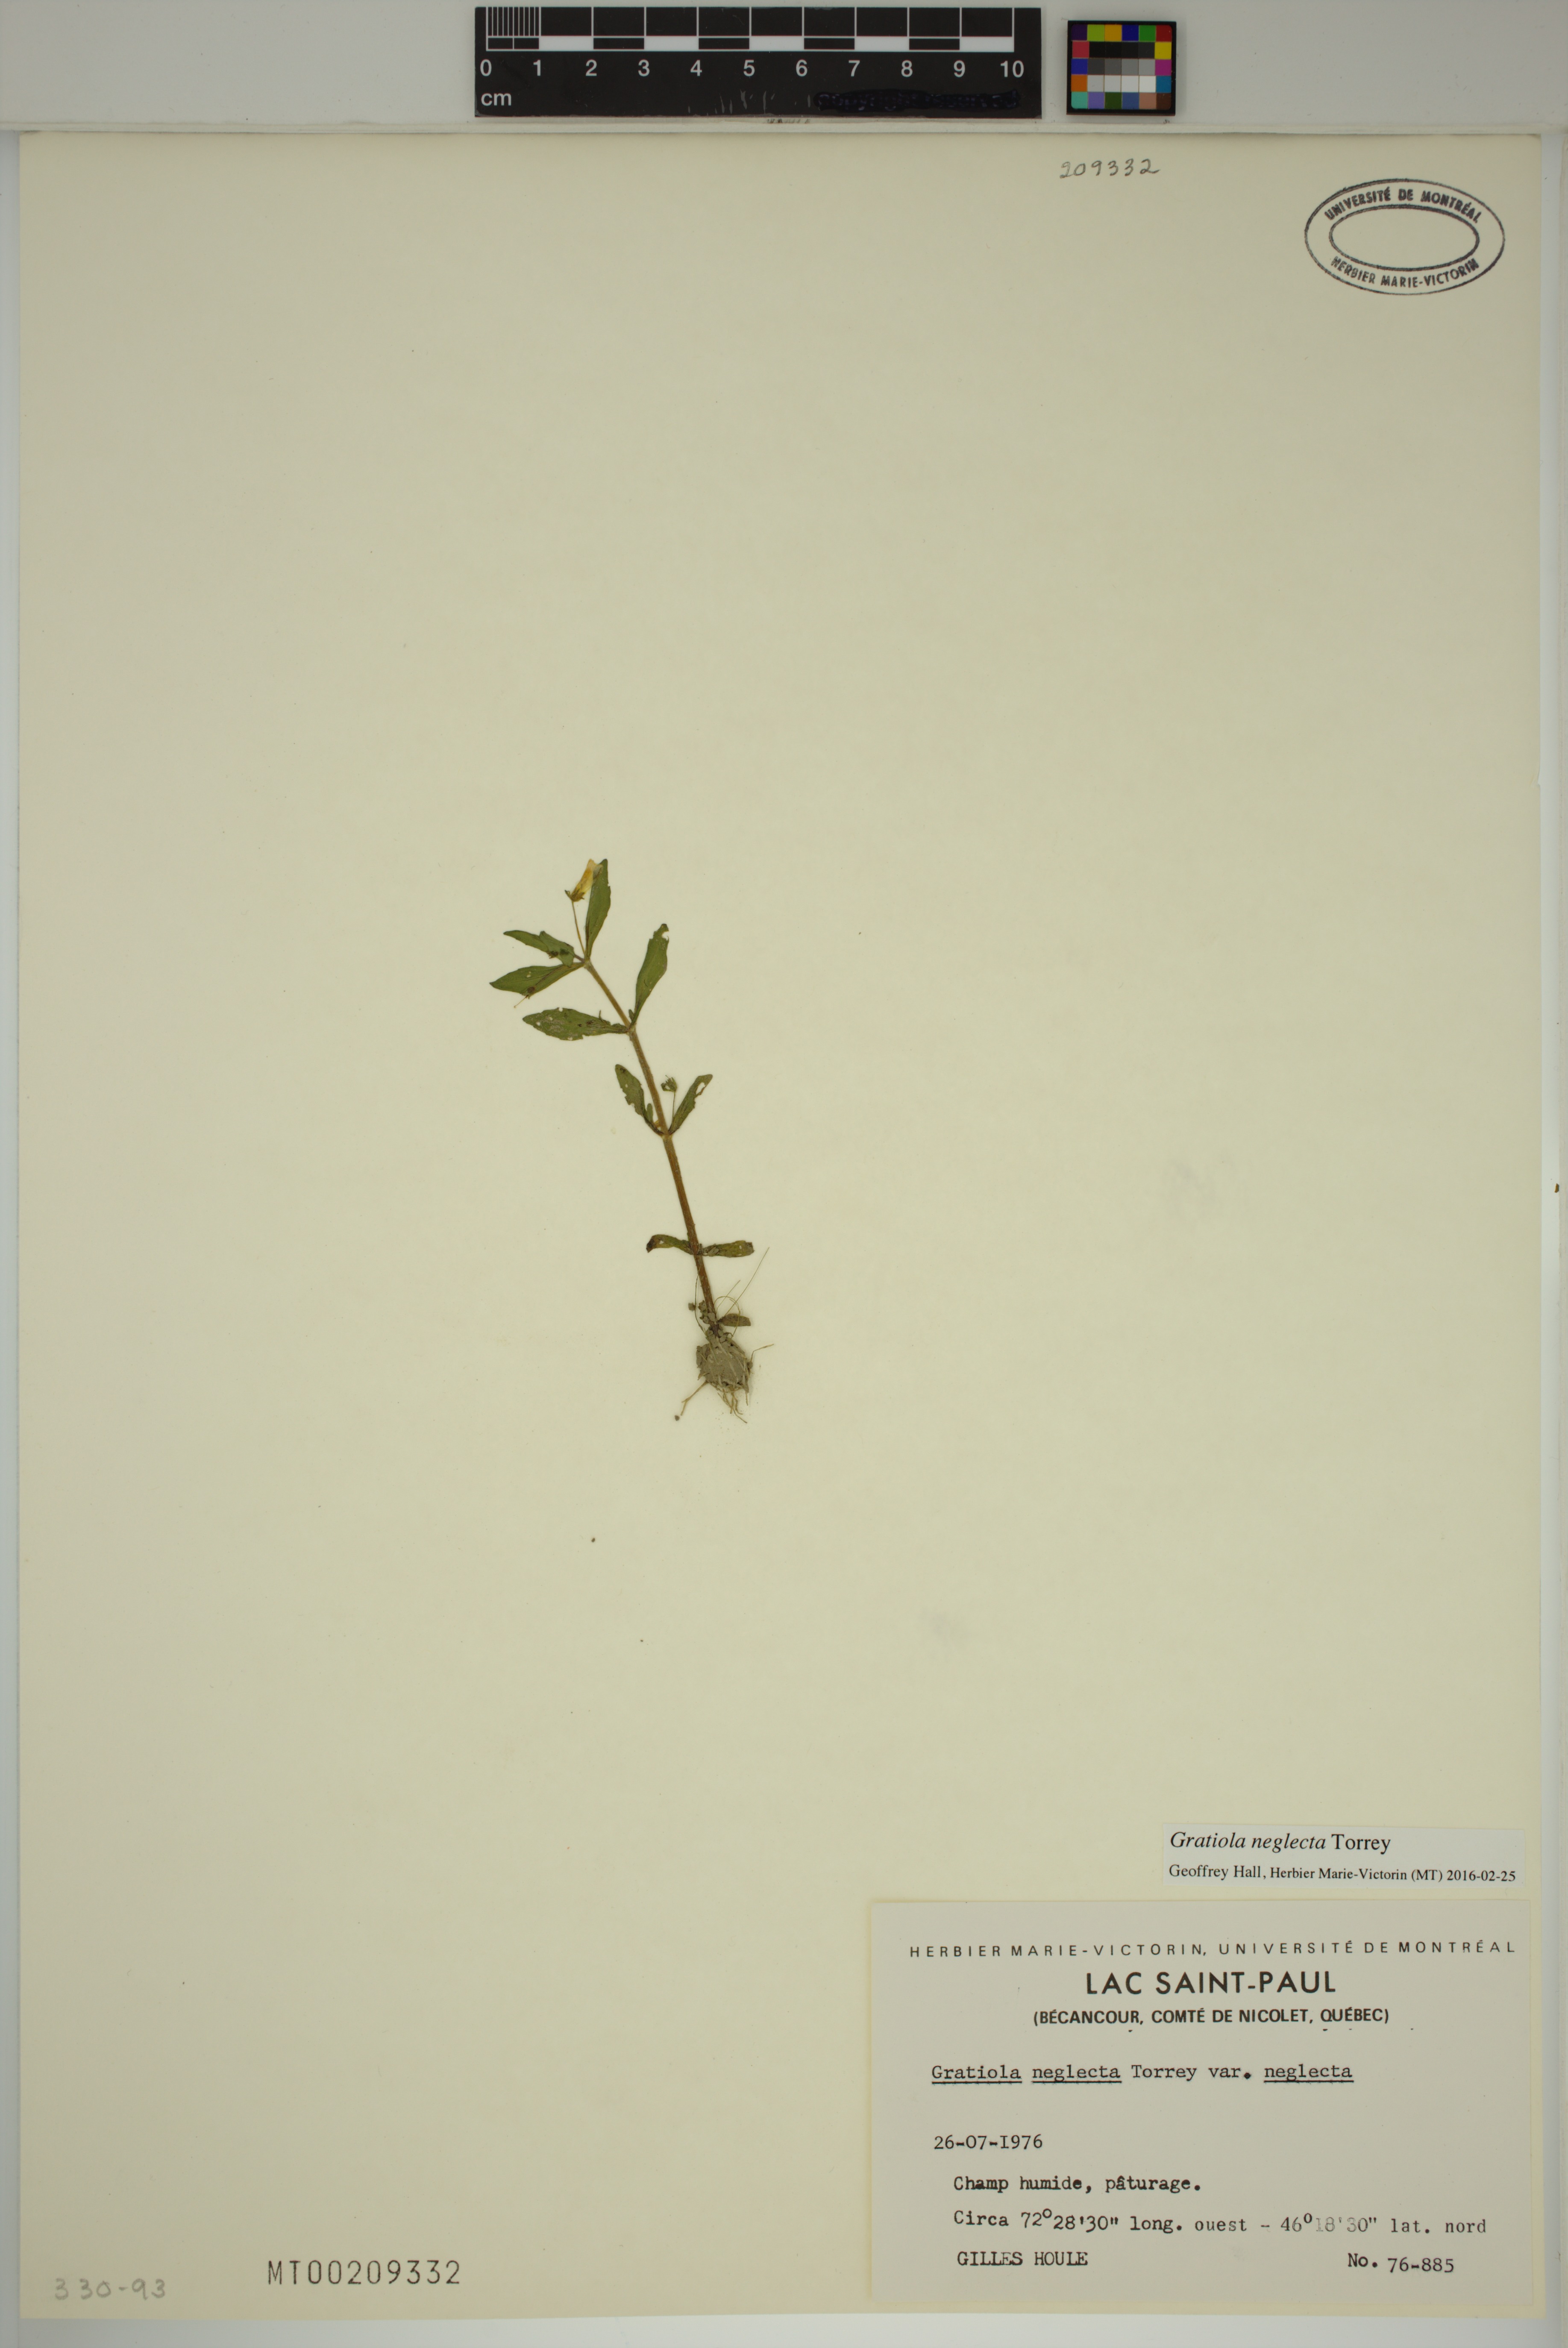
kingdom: Plantae
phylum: Tracheophyta
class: Magnoliopsida
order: Lamiales
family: Plantaginaceae
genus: Gratiola
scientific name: Gratiola neglecta
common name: American hedge-hyssop
